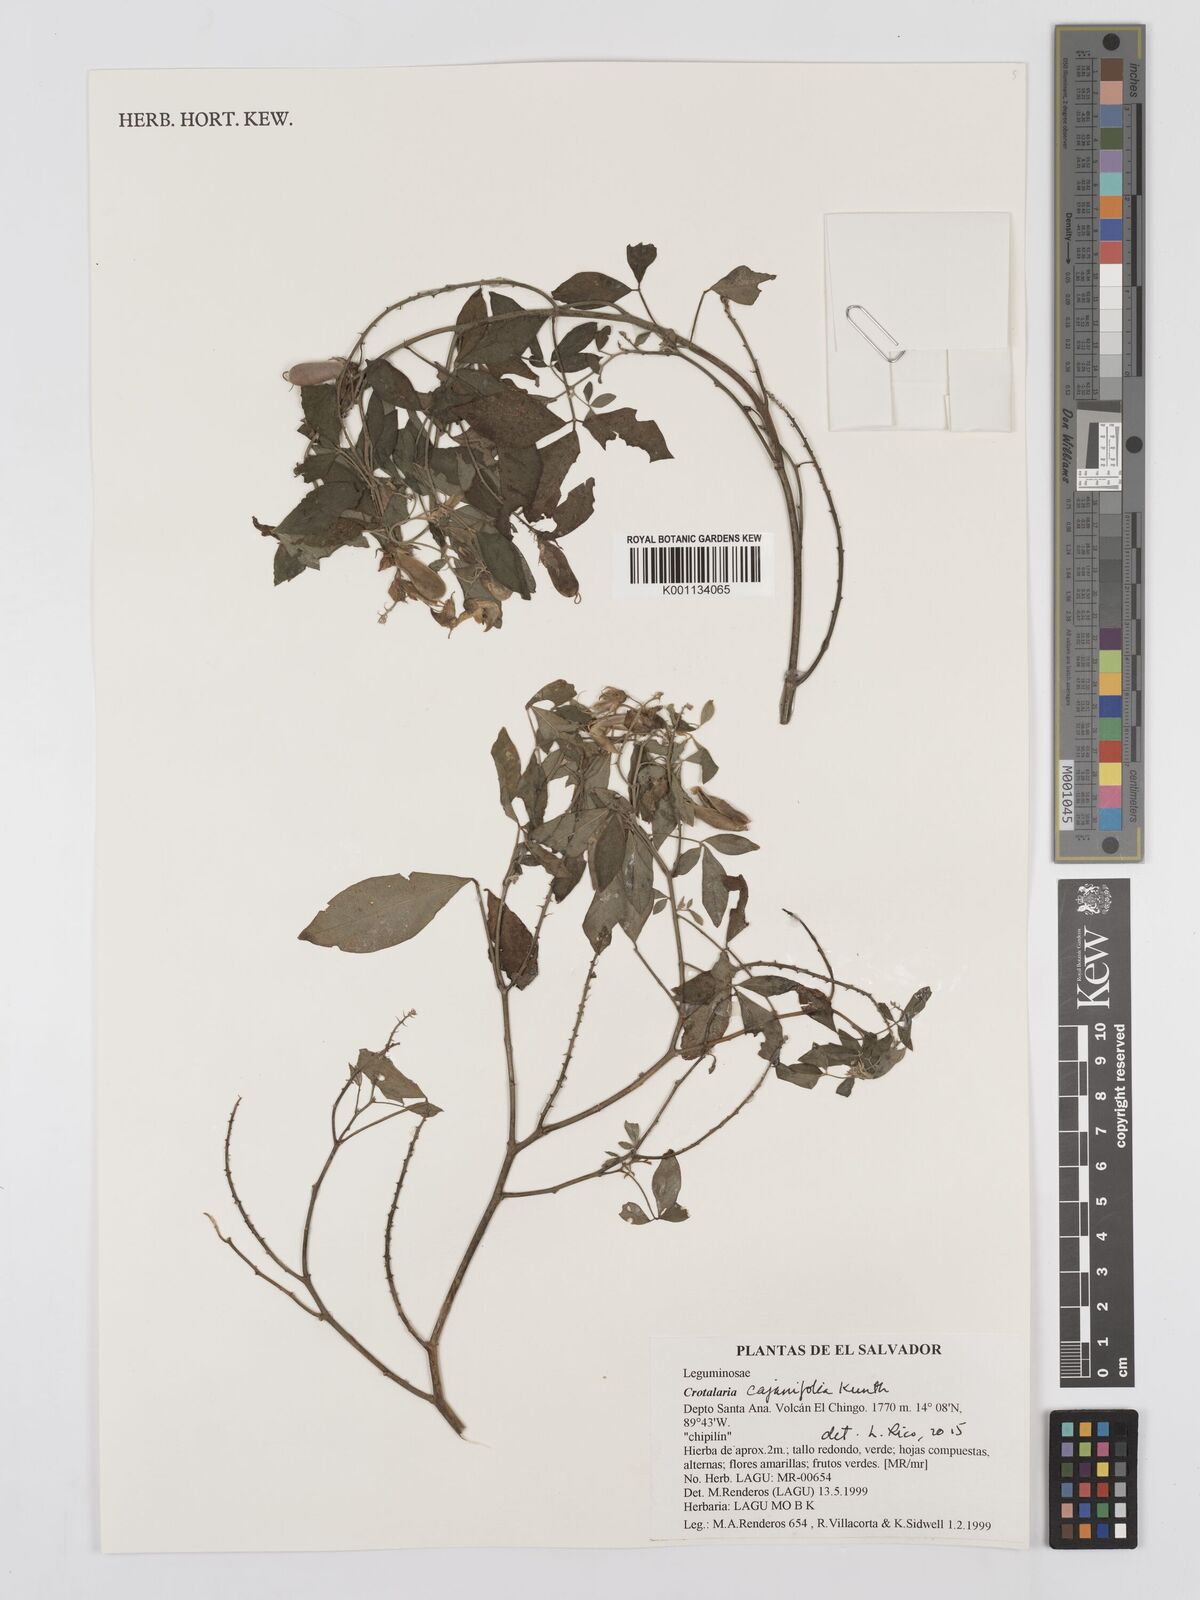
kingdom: Plantae
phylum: Tracheophyta
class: Magnoliopsida
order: Fabales
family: Fabaceae
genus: Crotalaria
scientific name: Crotalaria cajanifolia
